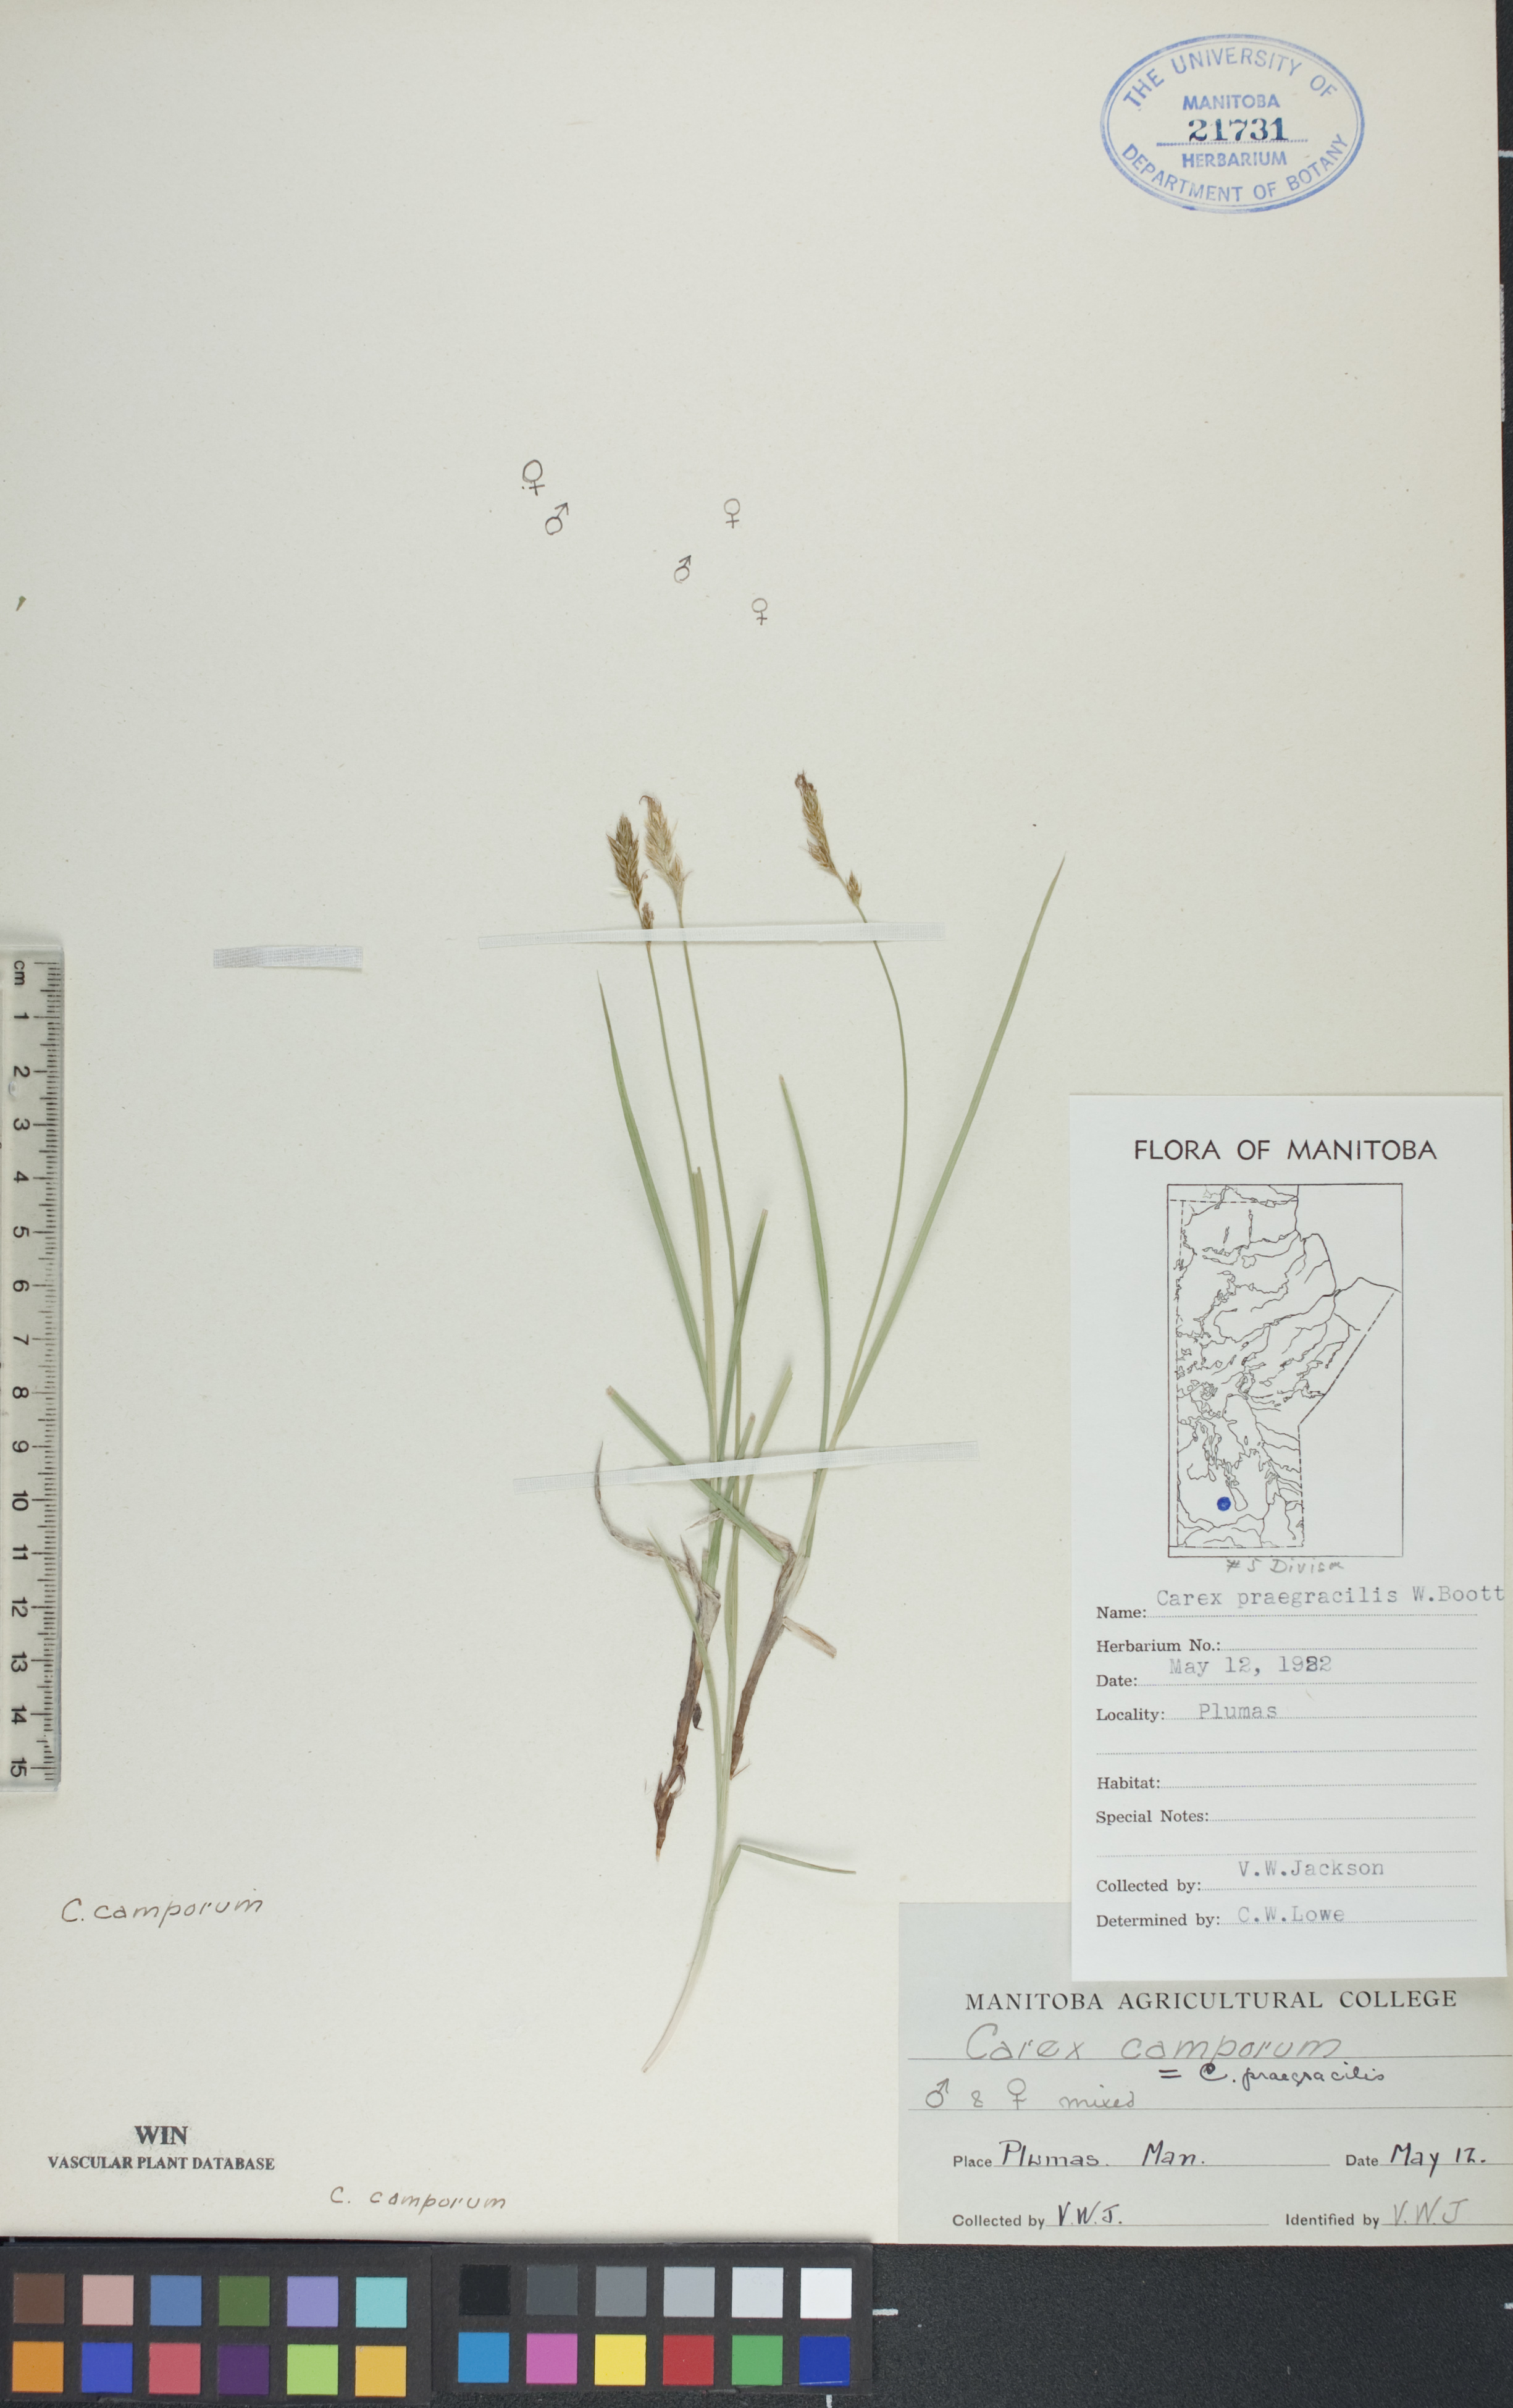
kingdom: Plantae
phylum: Tracheophyta
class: Liliopsida
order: Poales
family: Cyperaceae
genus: Carex
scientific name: Carex praegracilis
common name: Black creeper sedge
